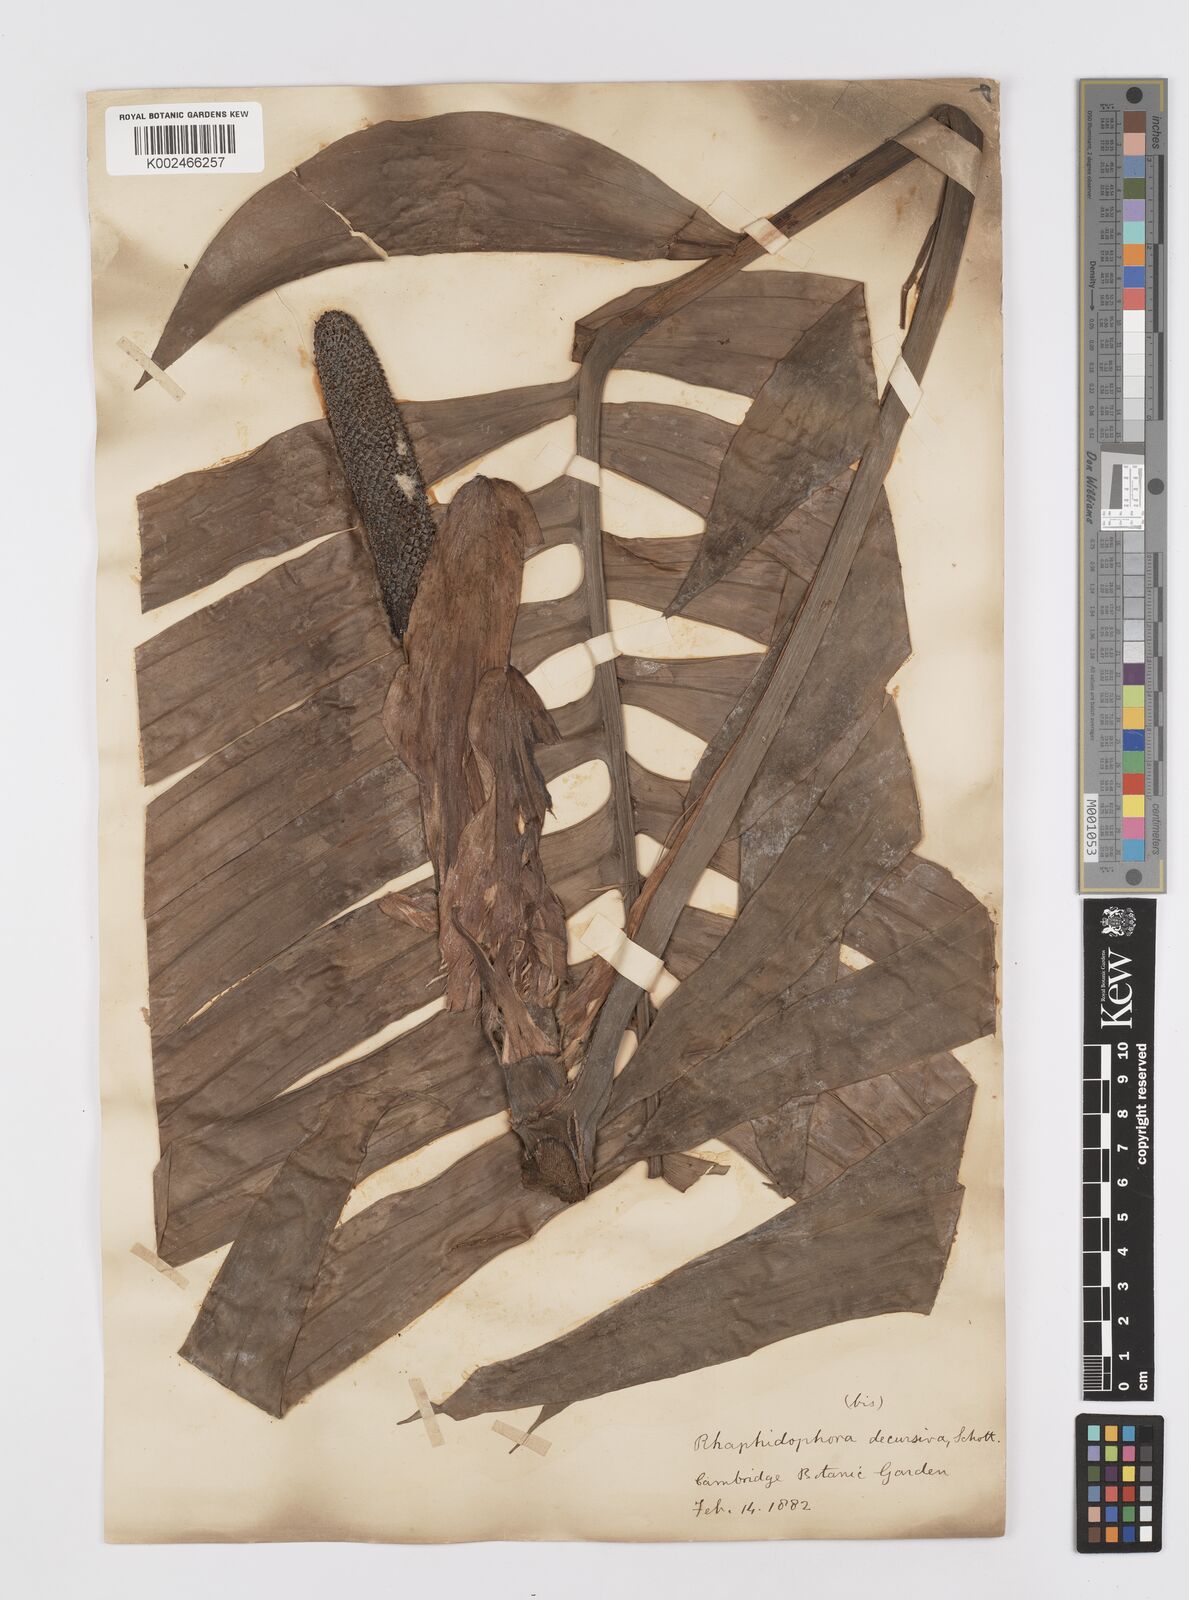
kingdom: Plantae
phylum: Tracheophyta
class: Liliopsida
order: Alismatales
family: Araceae
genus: Rhaphidophora
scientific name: Rhaphidophora decursiva
